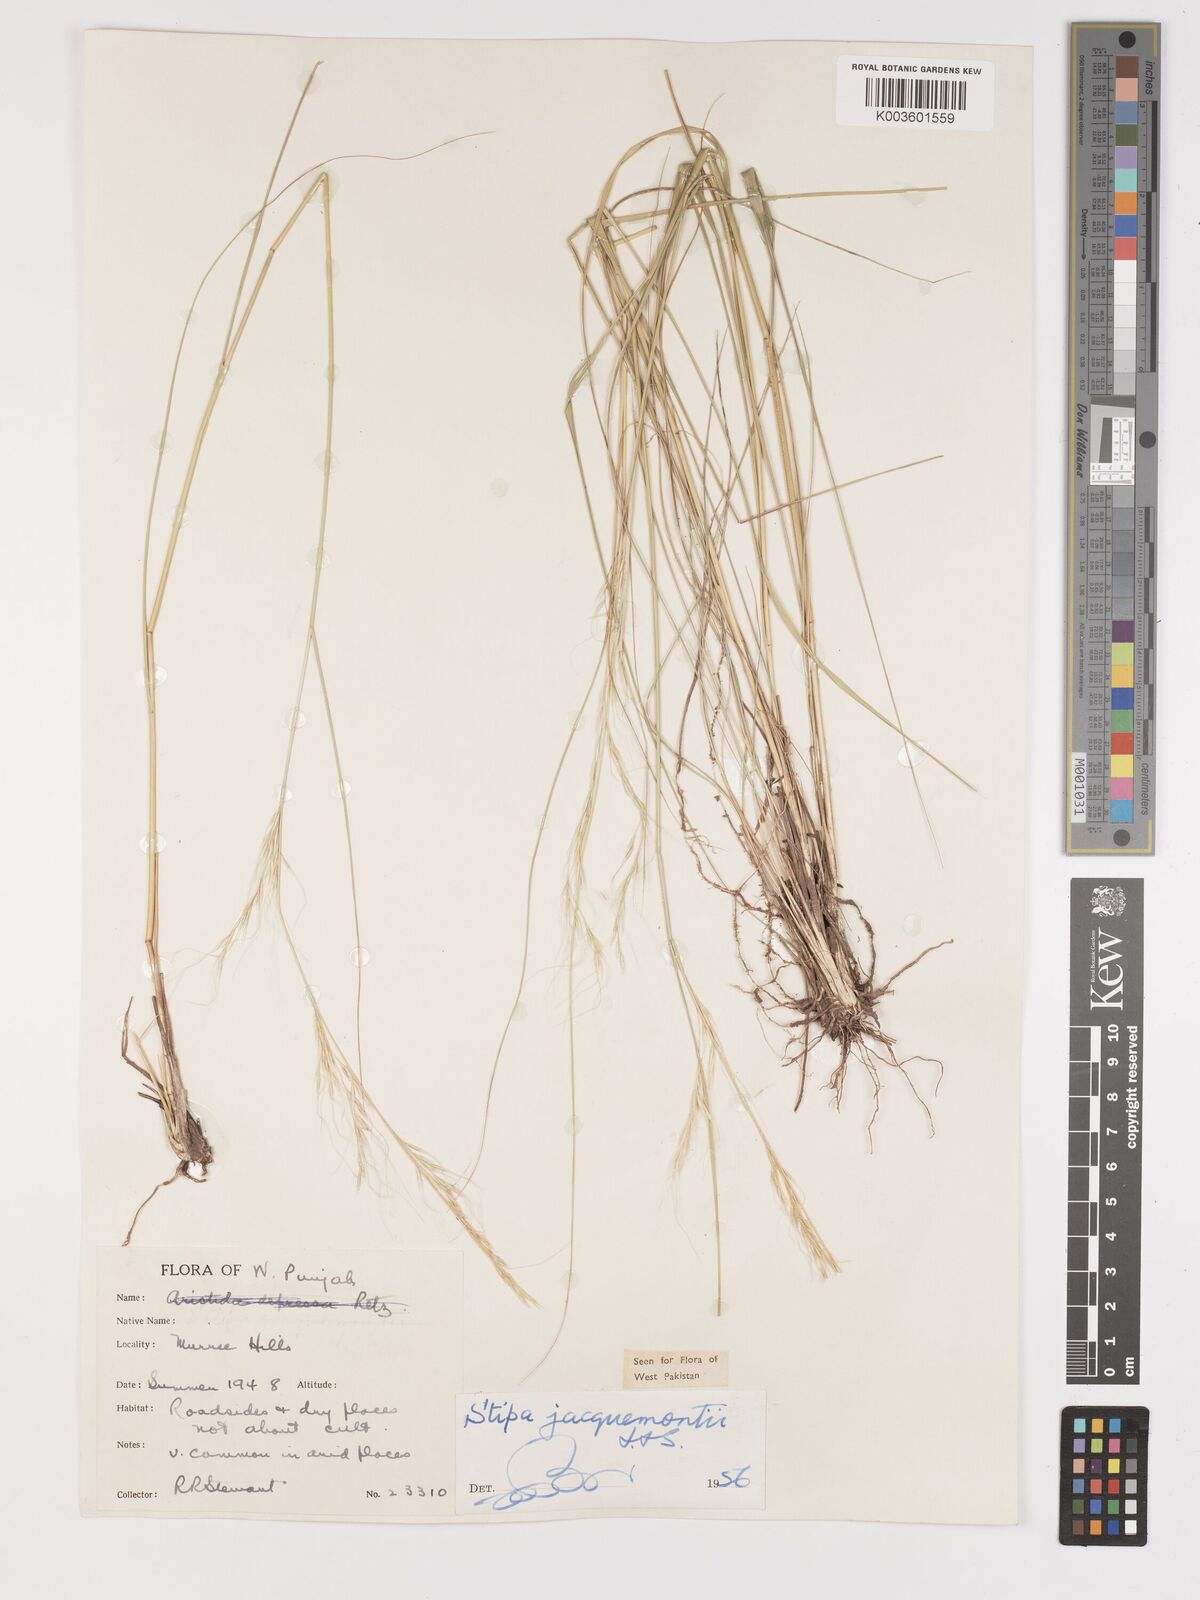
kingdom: Plantae
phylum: Tracheophyta
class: Liliopsida
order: Poales
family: Poaceae
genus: Achnatherum
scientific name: Achnatherum jacquemontii
